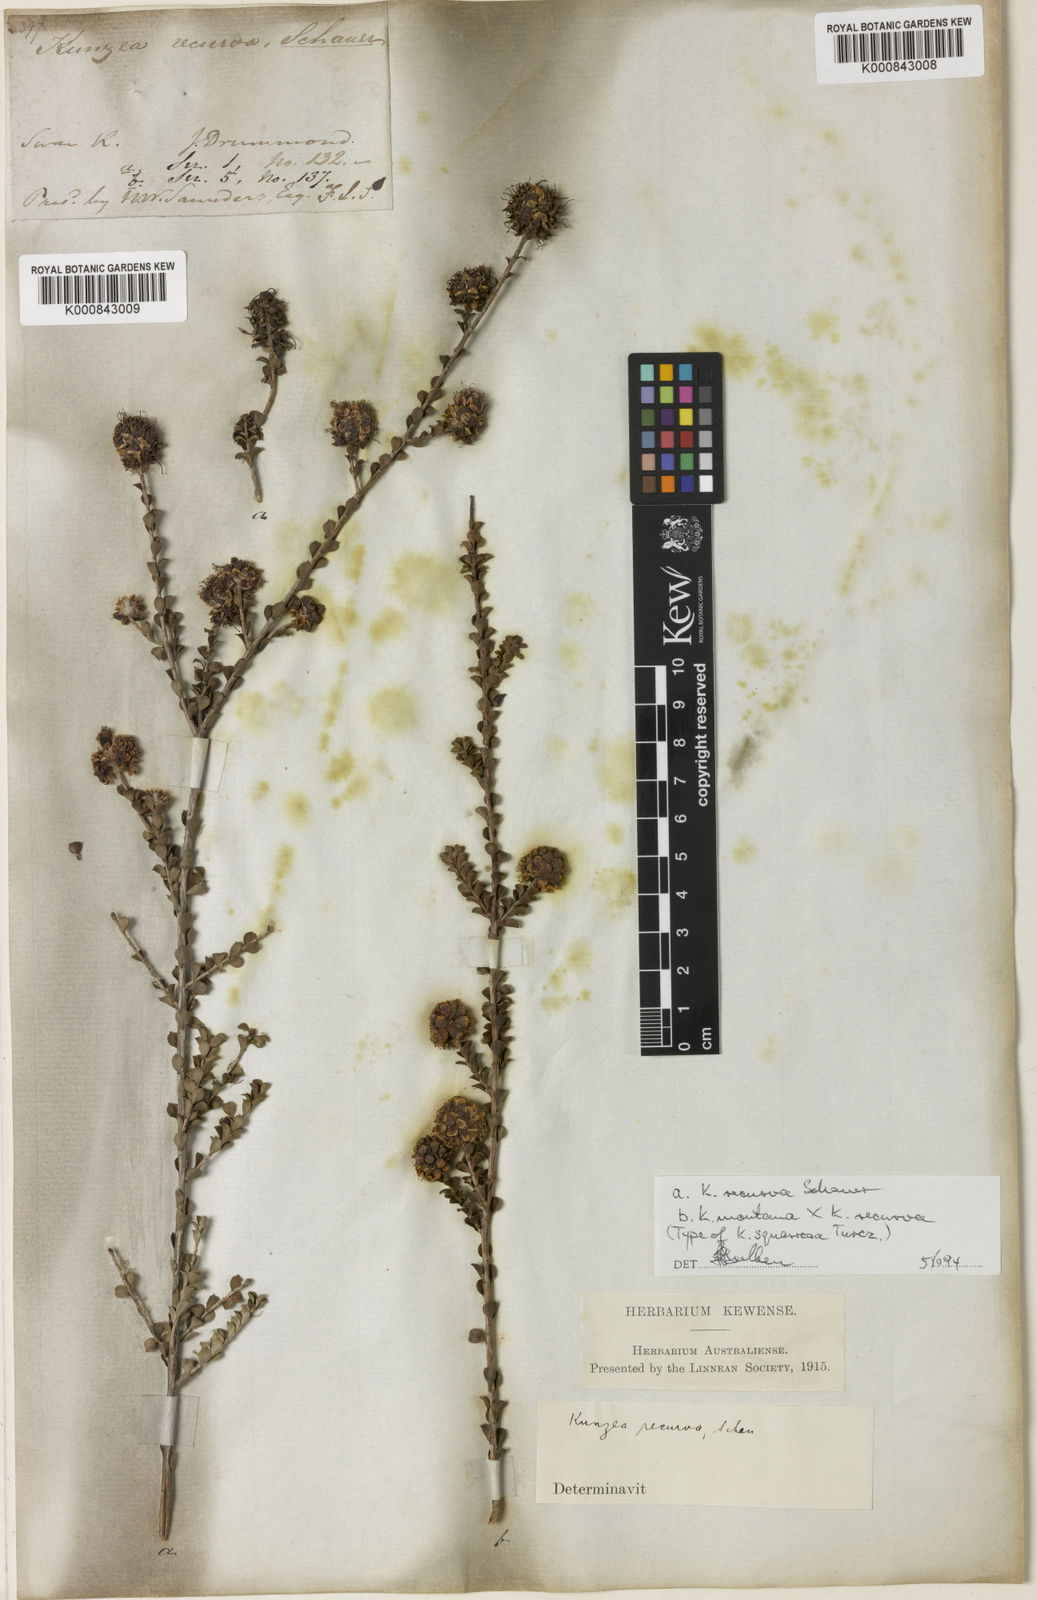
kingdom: Plantae
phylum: Tracheophyta
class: Magnoliopsida
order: Myrtales
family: Myrtaceae
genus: Kunzea
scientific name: Kunzea montana
